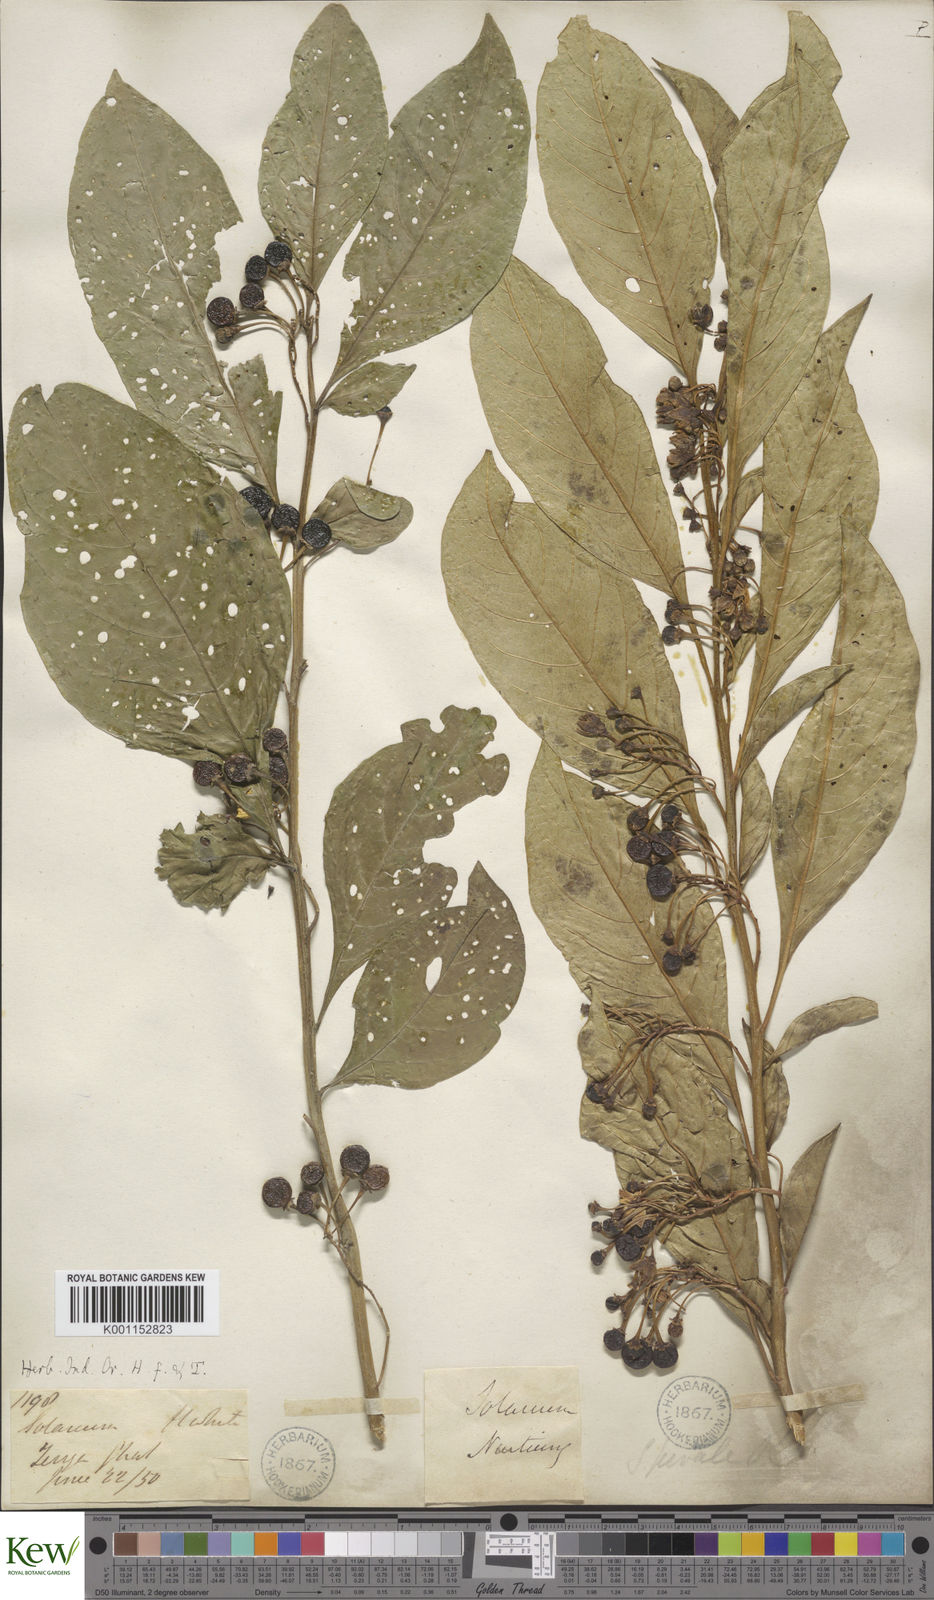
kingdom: Plantae
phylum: Tracheophyta
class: Magnoliopsida
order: Solanales
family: Solanaceae
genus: Solanum
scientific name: Solanum spirale
